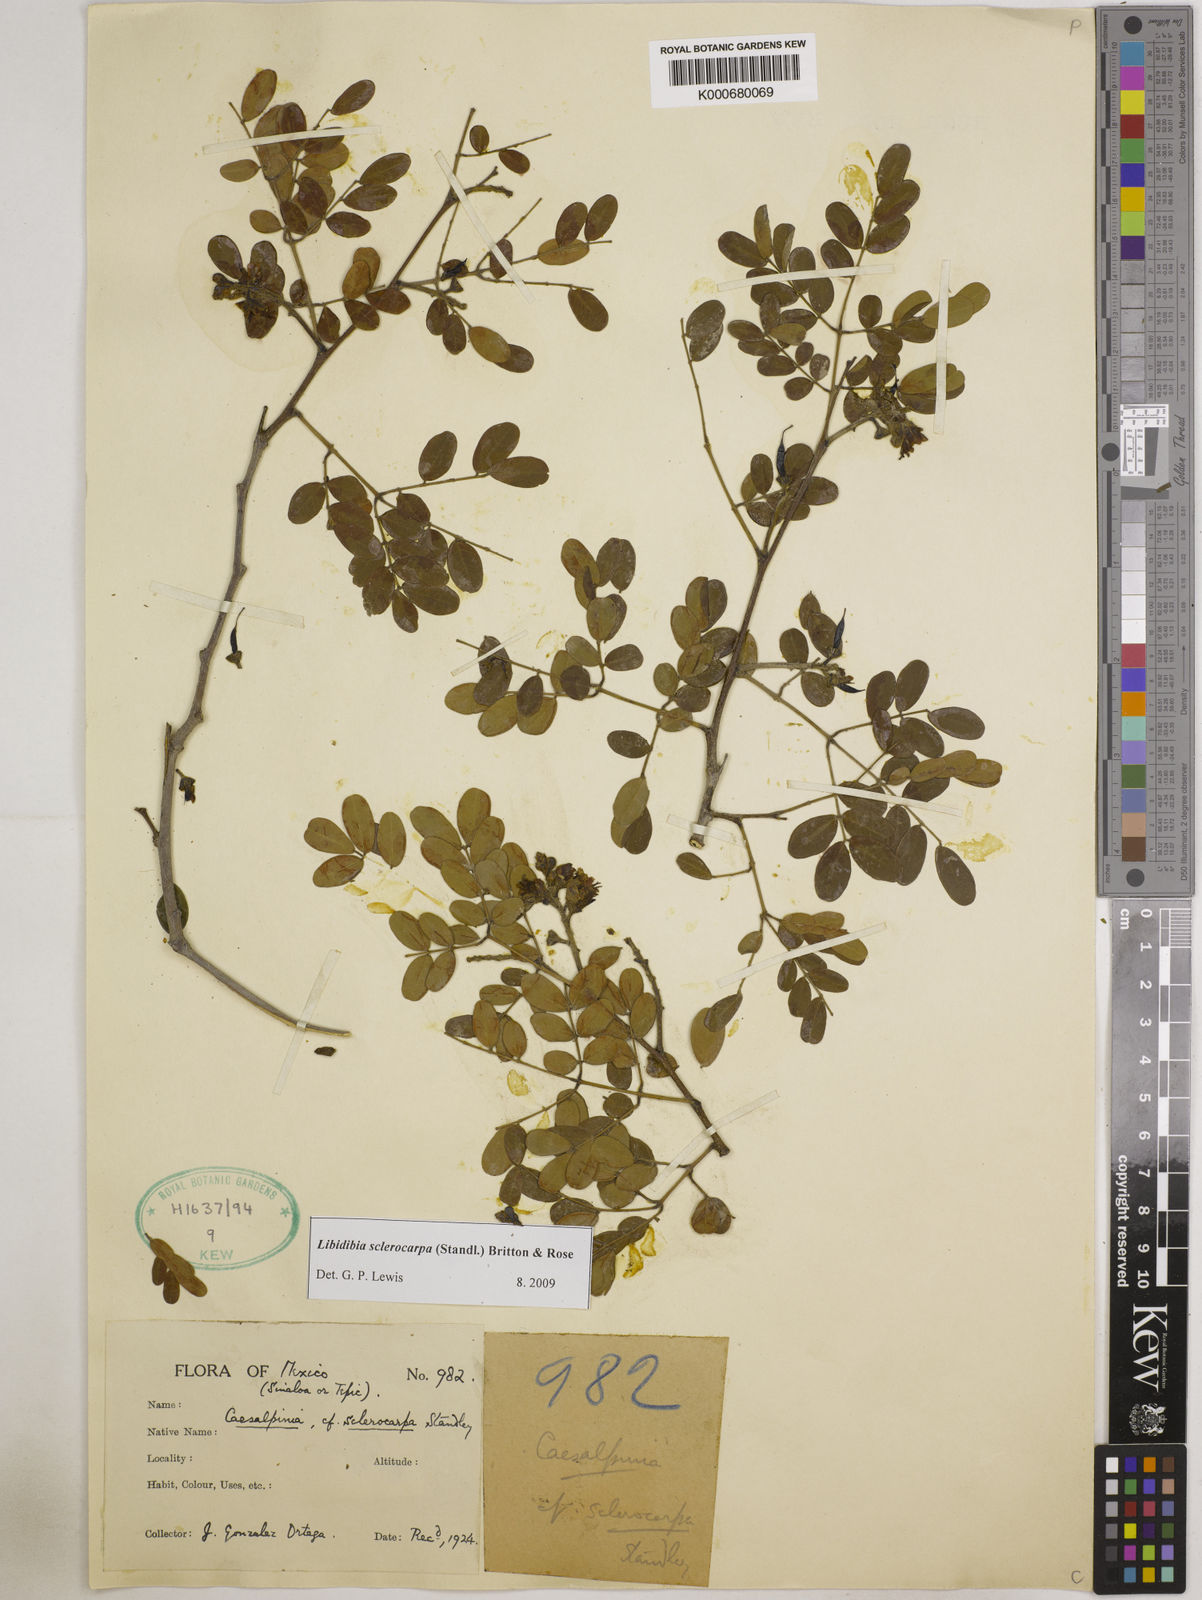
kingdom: Plantae
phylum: Tracheophyta
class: Magnoliopsida
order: Fabales
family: Fabaceae
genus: Libidibia
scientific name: Libidibia sclerocarpa
